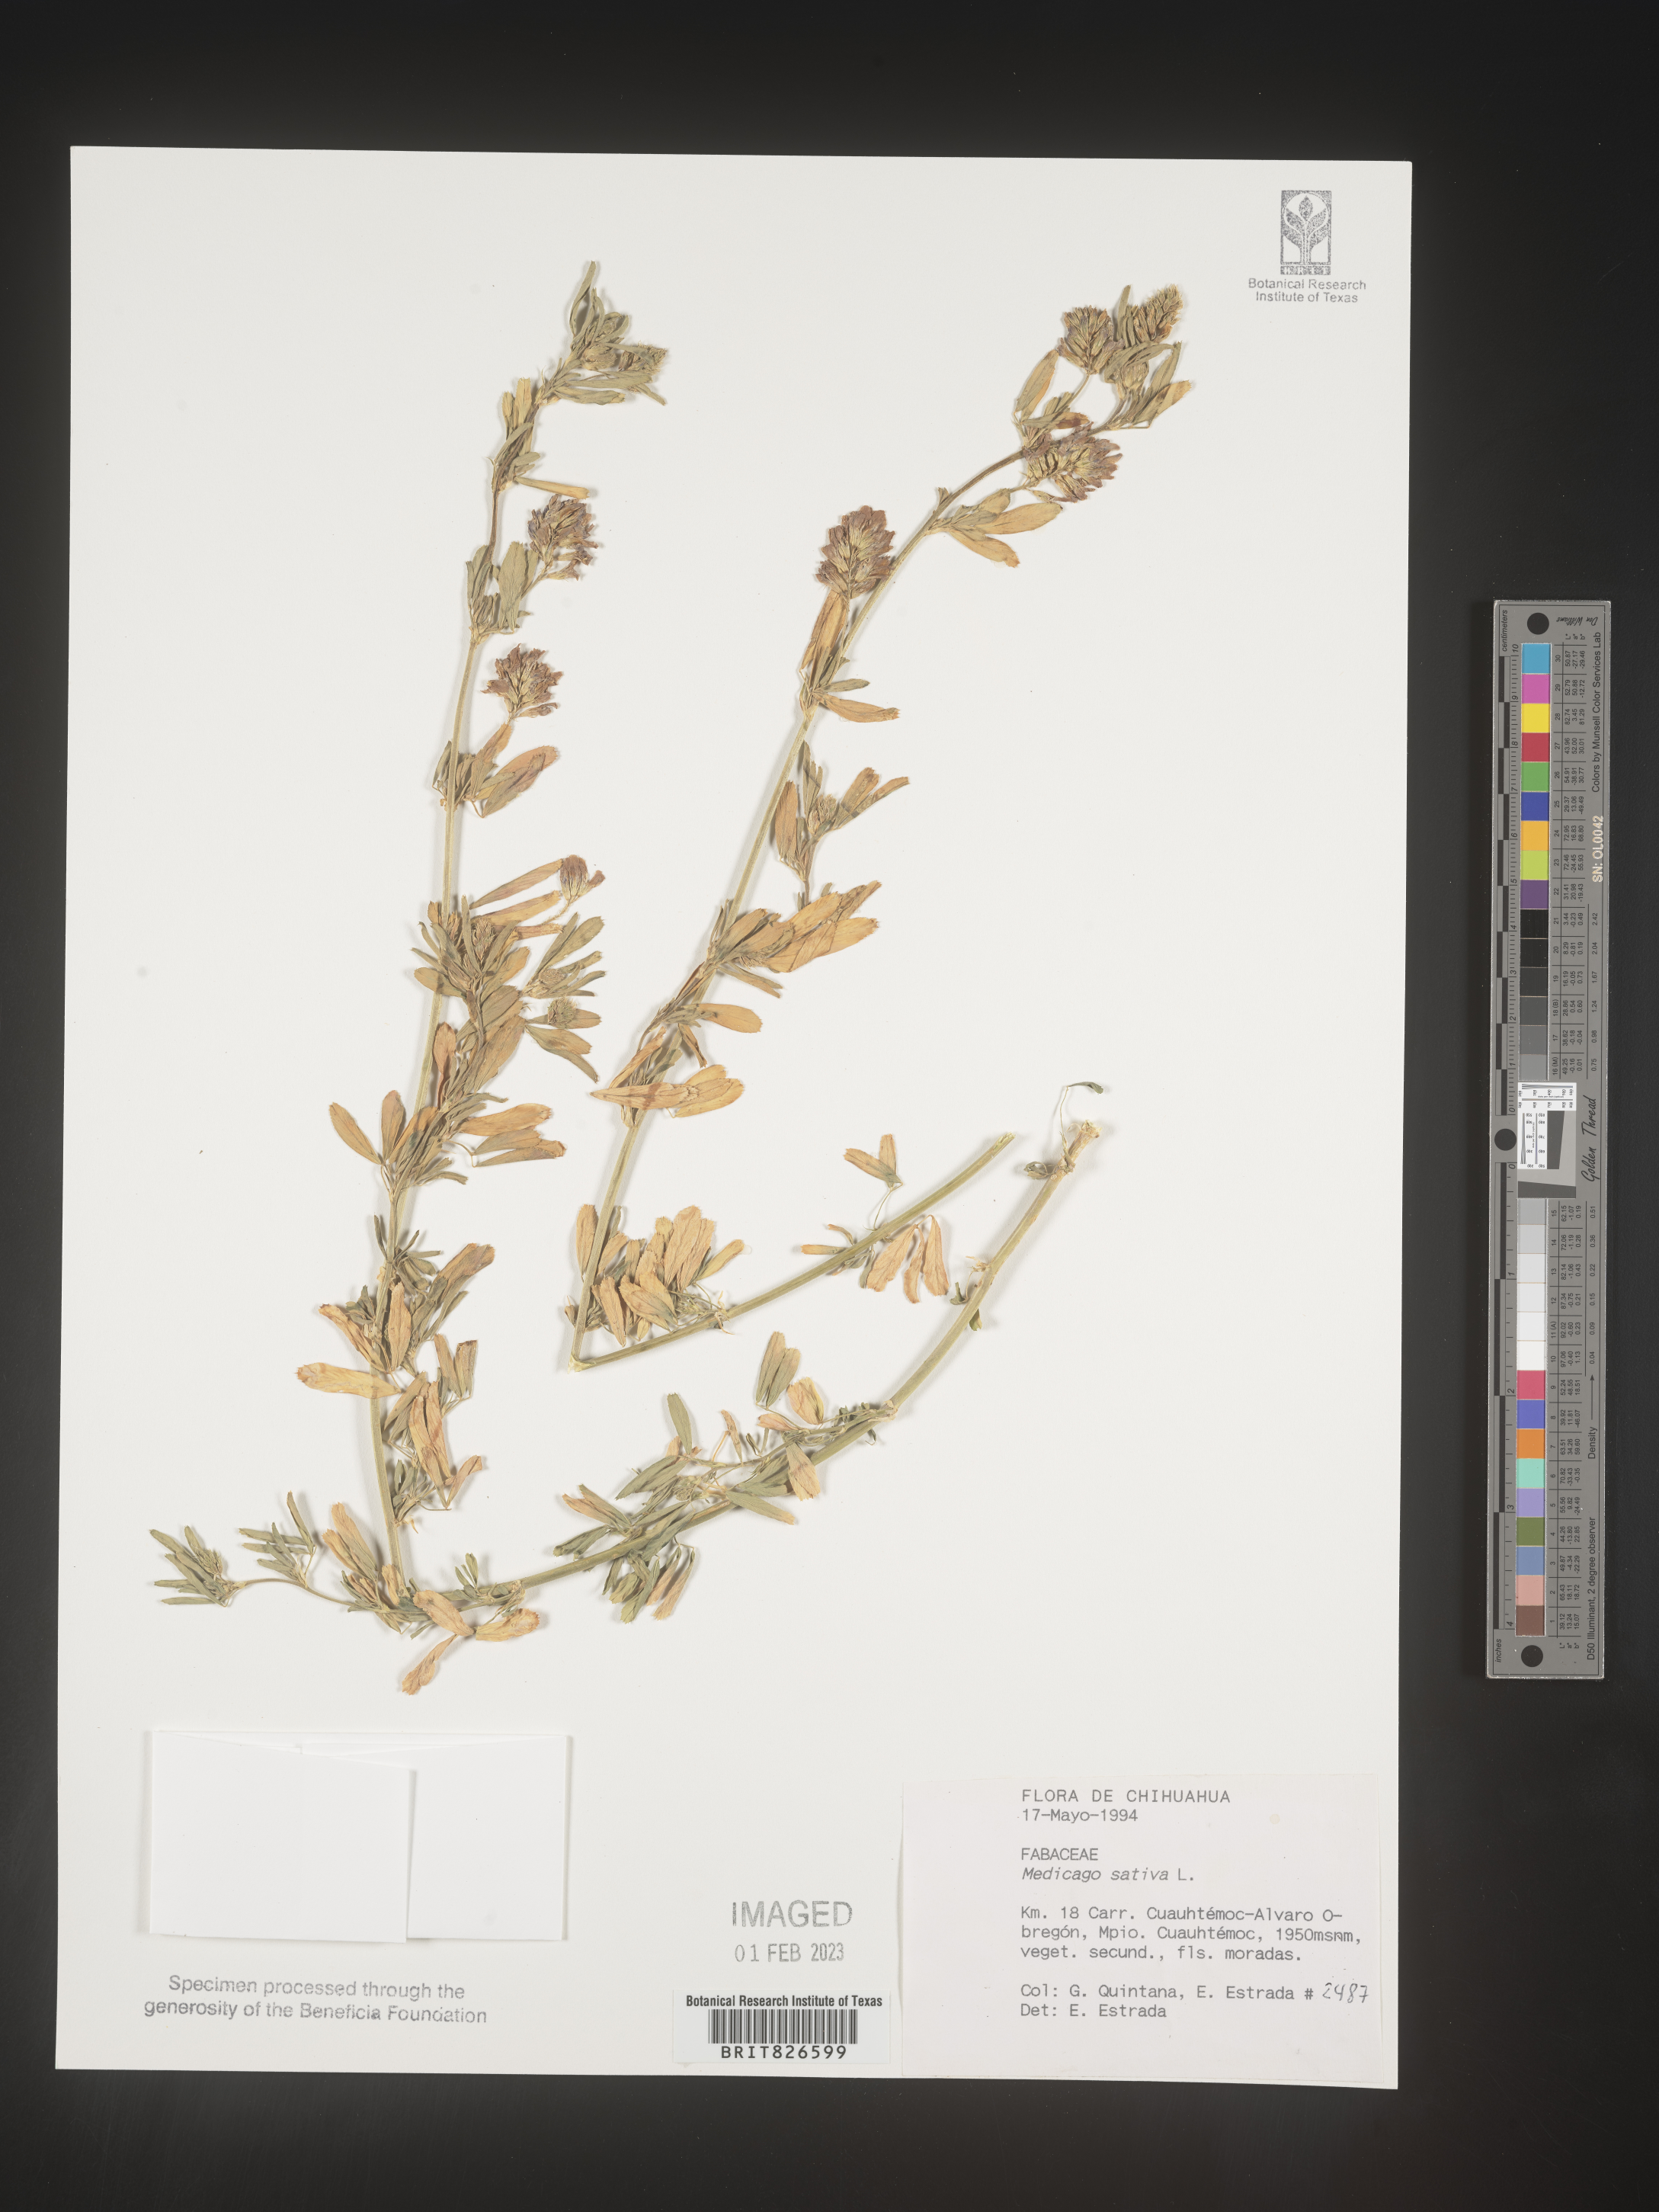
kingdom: Plantae
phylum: Tracheophyta
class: Magnoliopsida
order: Fabales
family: Fabaceae
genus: Medicago
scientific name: Medicago
